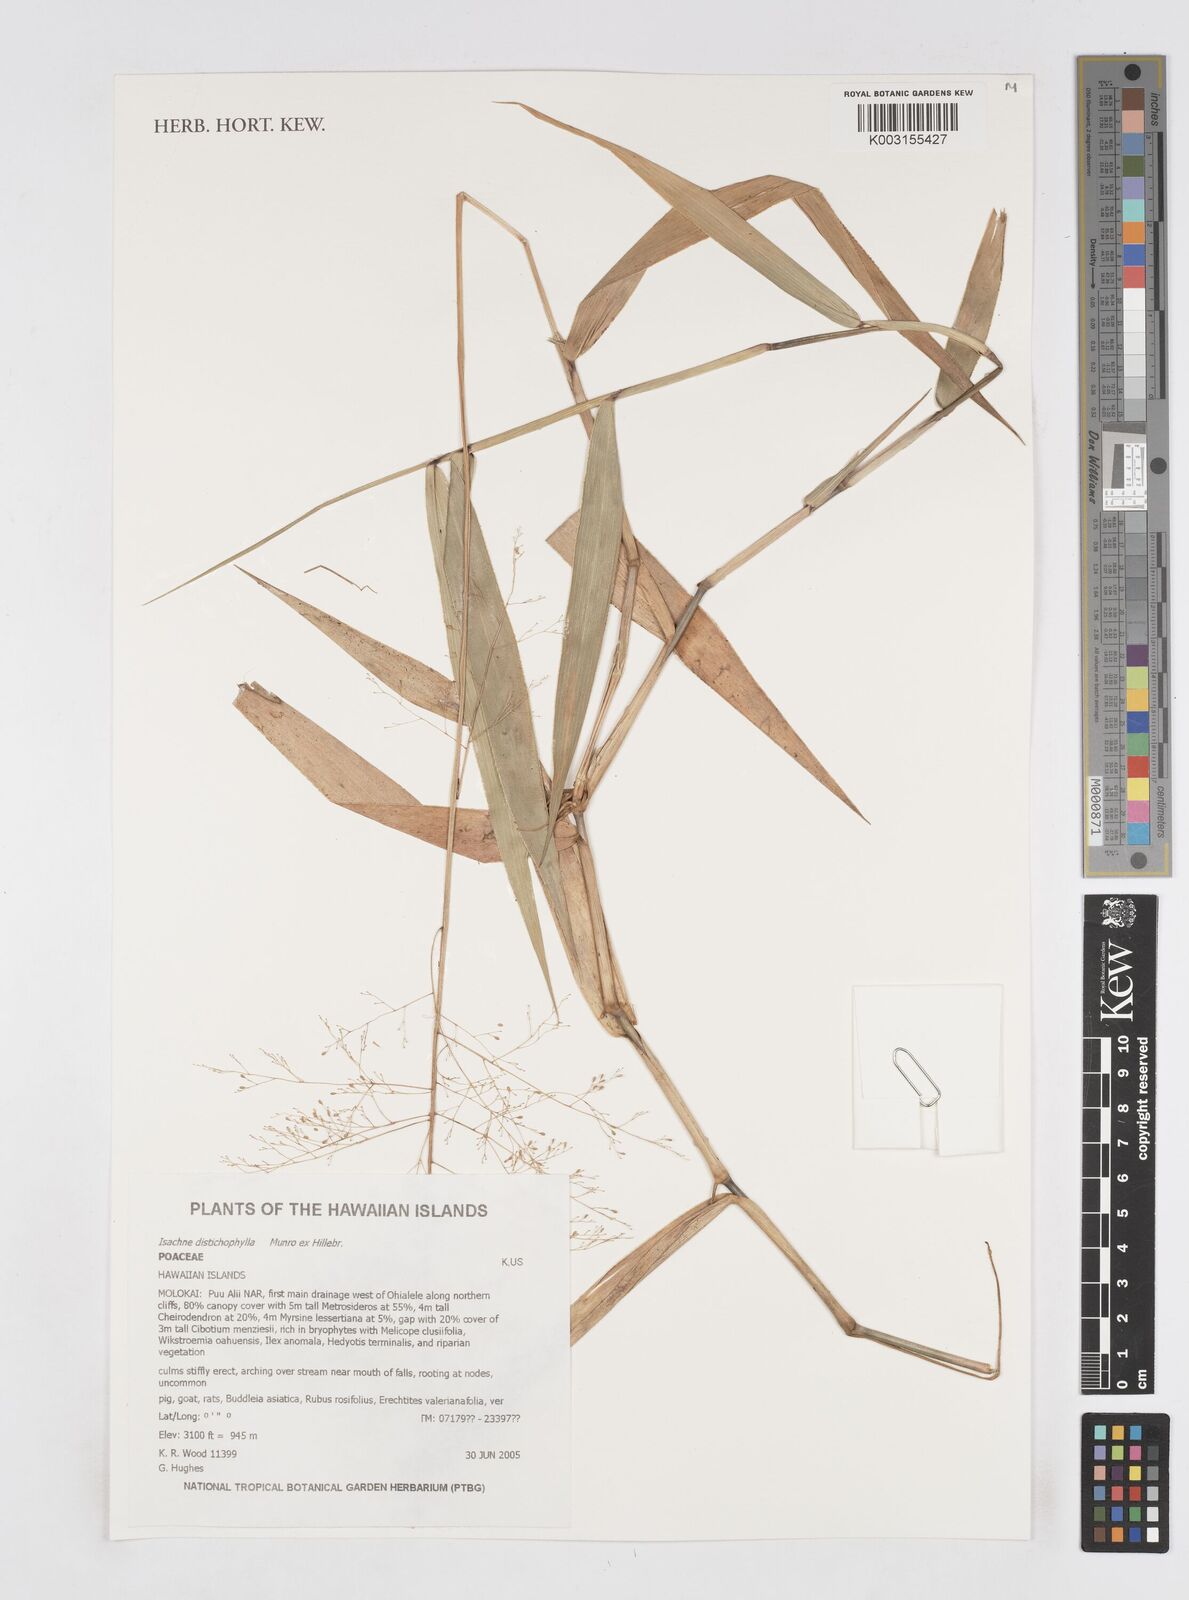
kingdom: Plantae
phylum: Tracheophyta
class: Liliopsida
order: Poales
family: Poaceae
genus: Isachne
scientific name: Isachne distichophylla
